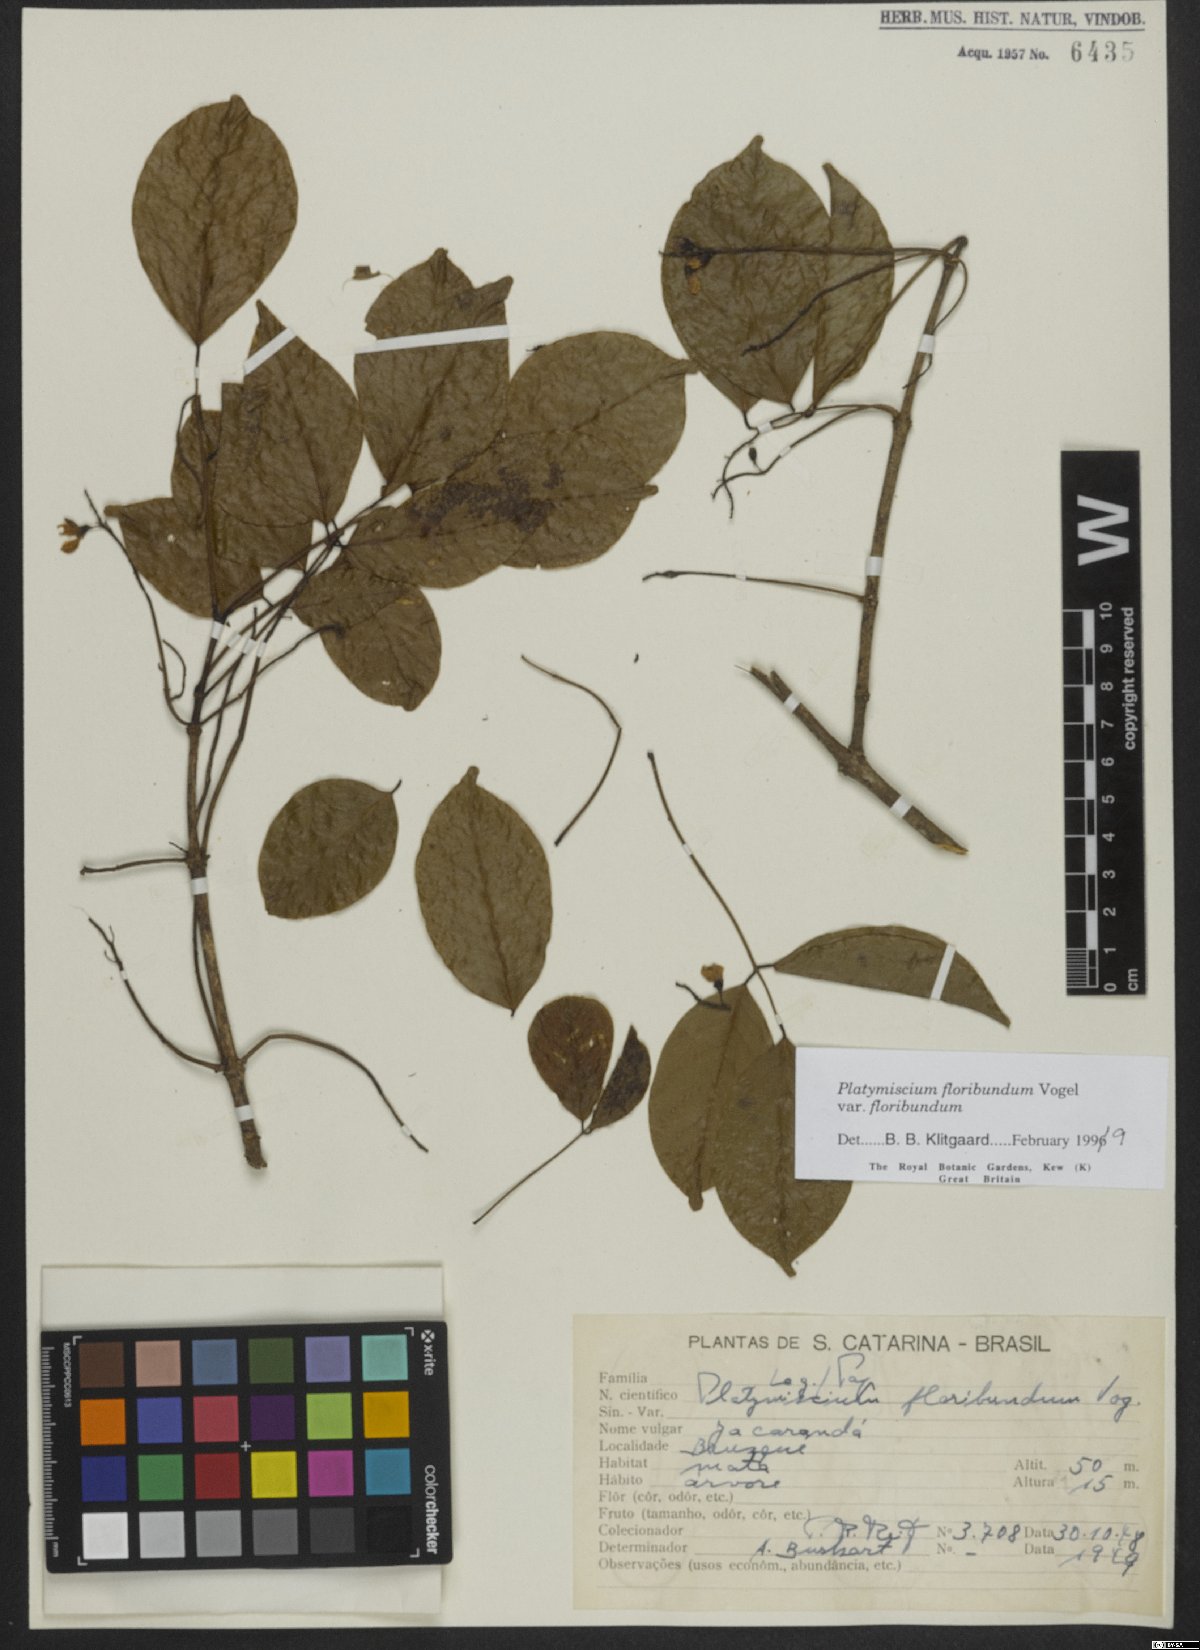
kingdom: Plantae
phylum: Tracheophyta
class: Magnoliopsida
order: Fabales
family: Fabaceae
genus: Platymiscium
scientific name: Platymiscium floribundum
